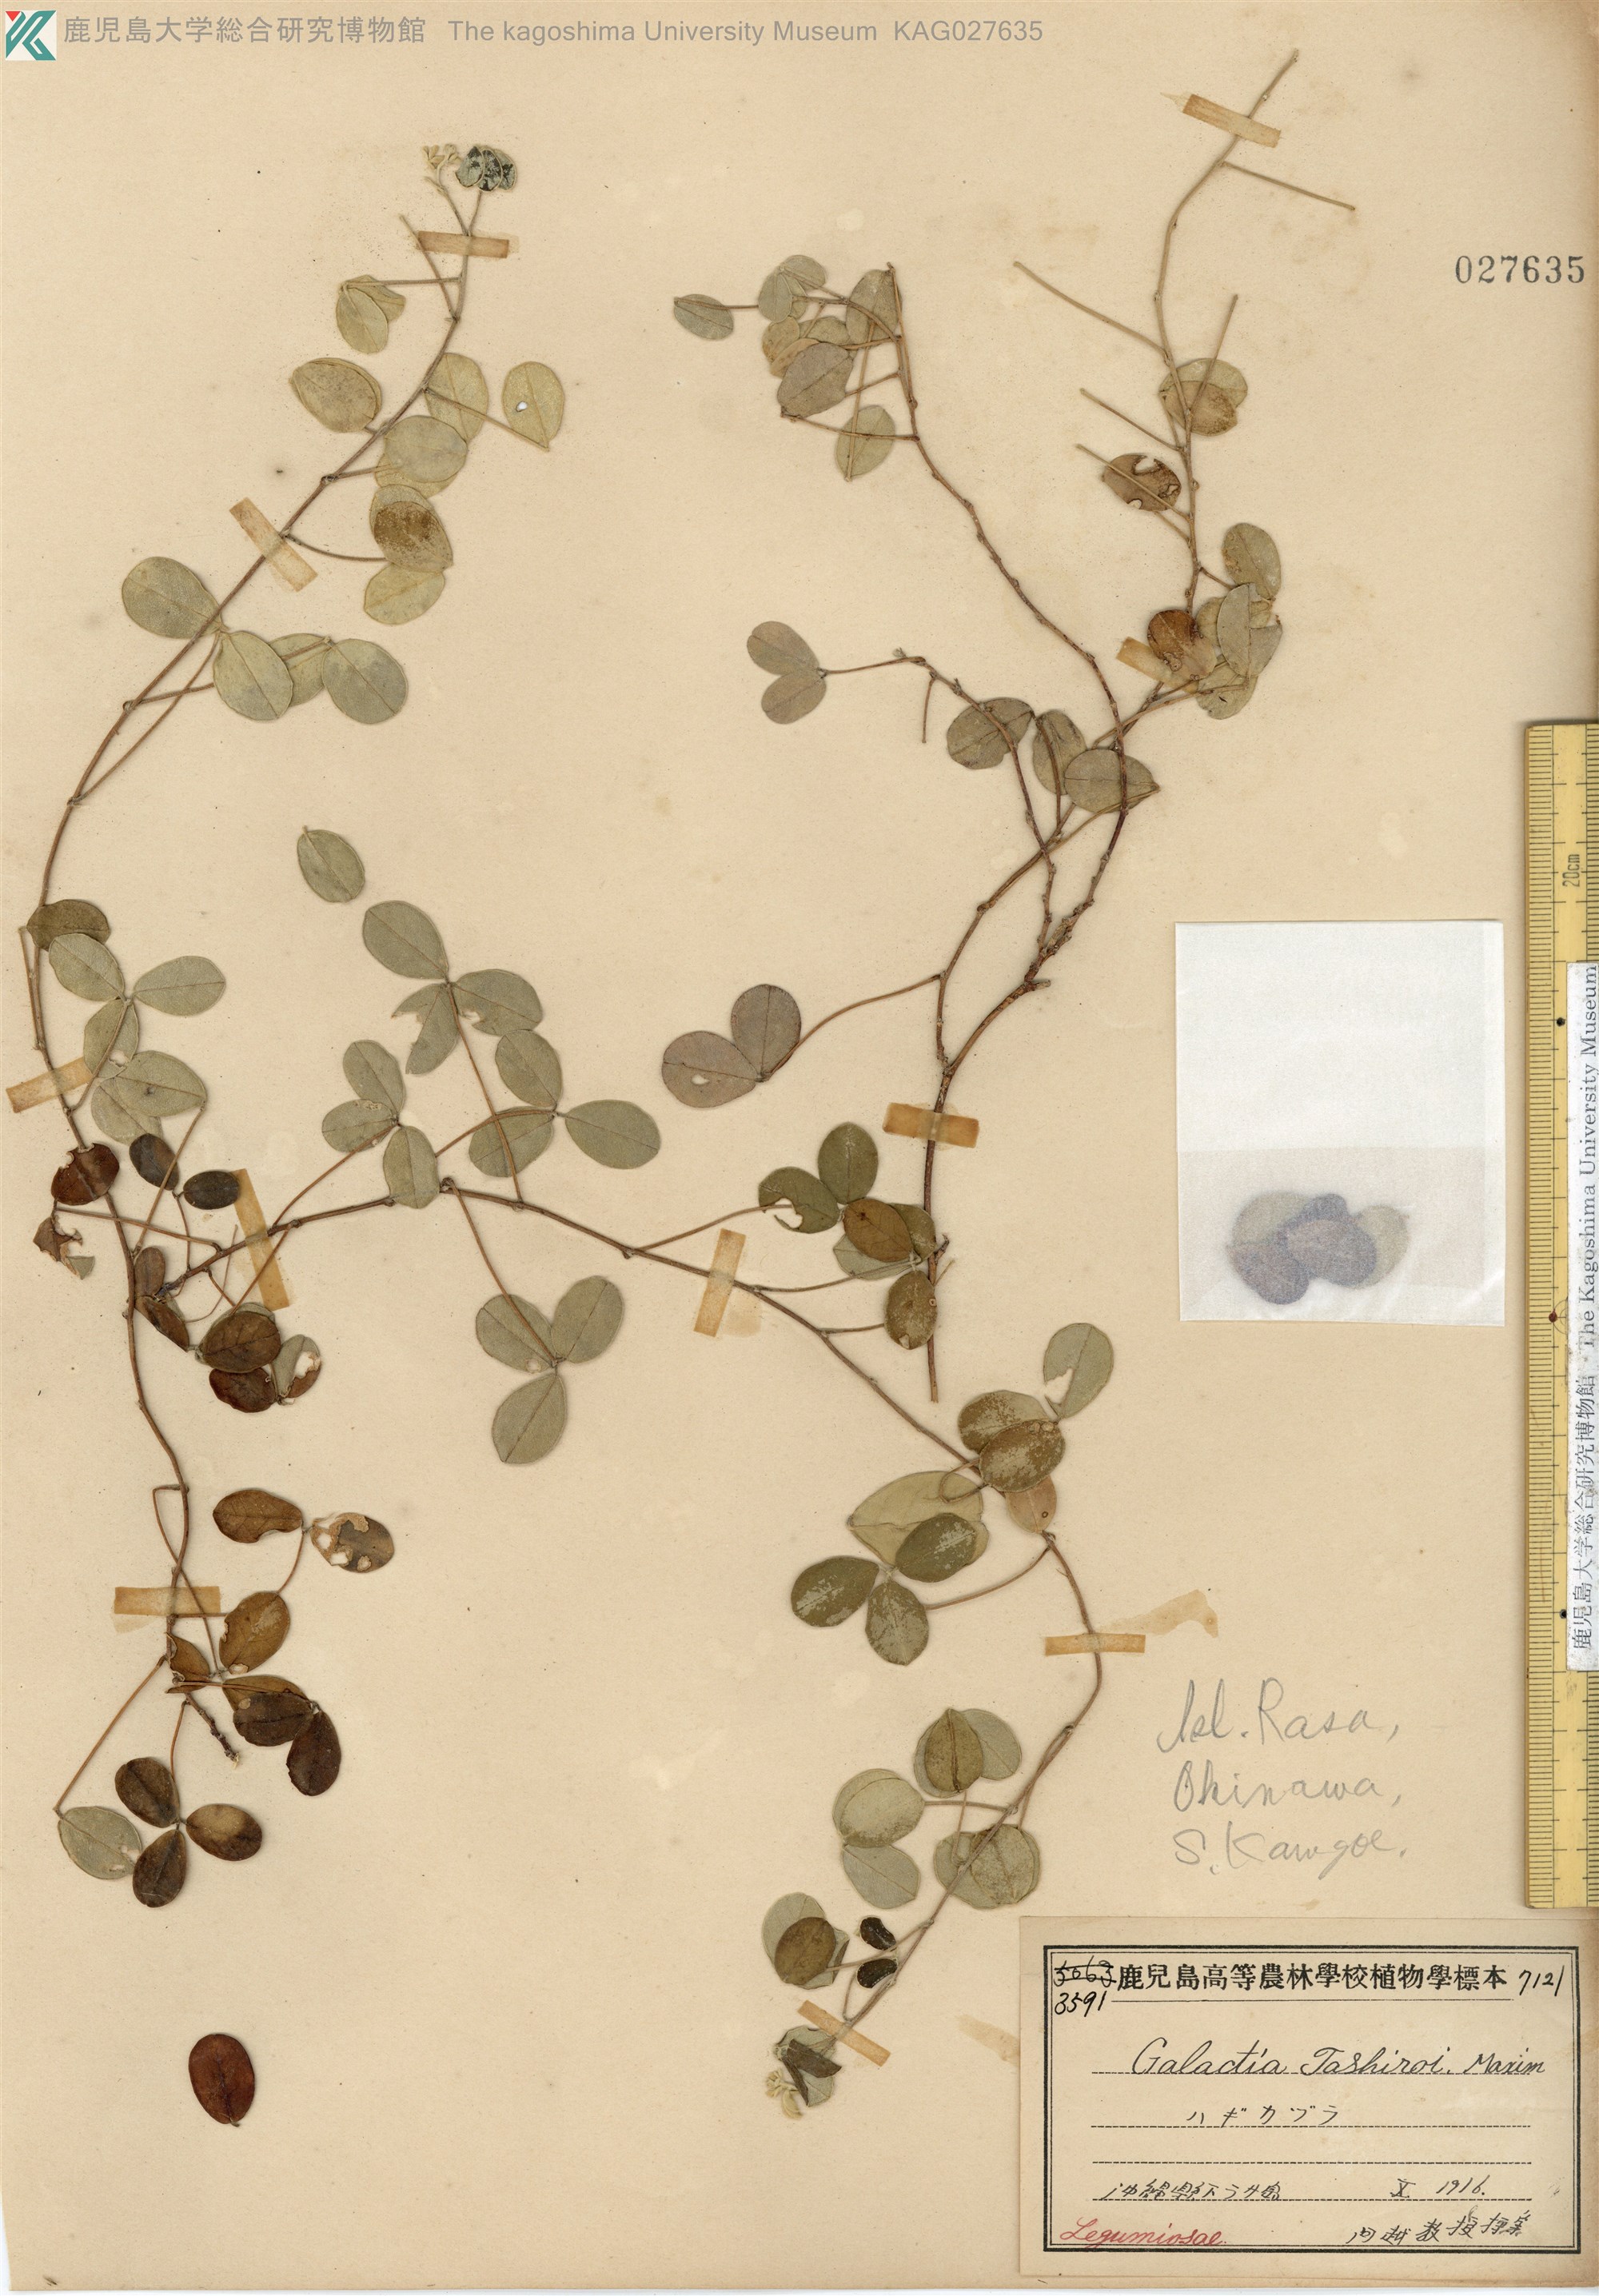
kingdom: Plantae
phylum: Tracheophyta
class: Magnoliopsida
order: Fabales
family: Fabaceae
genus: Galactia
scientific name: Galactia tashiroi
